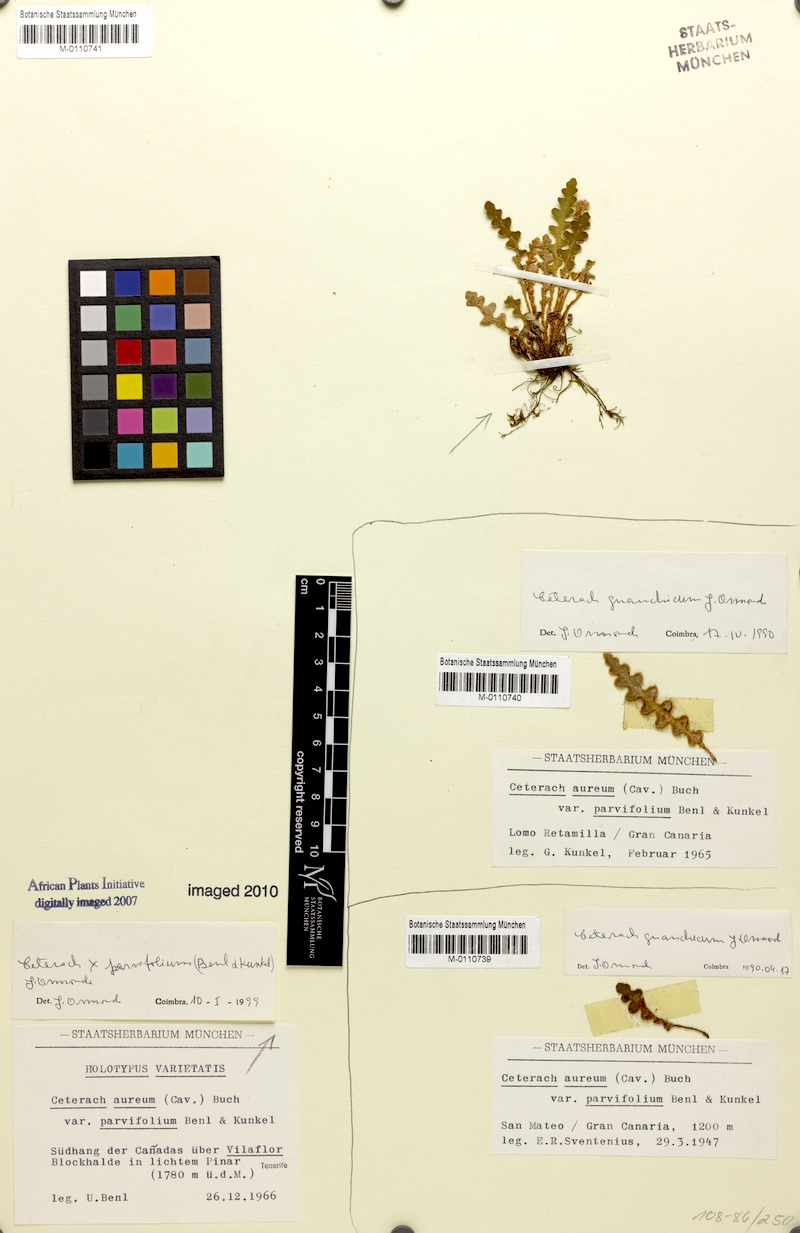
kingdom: Plantae
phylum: Tracheophyta
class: Polypodiopsida
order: Polypodiales
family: Aspleniaceae
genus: Asplenium
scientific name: Asplenium aureum
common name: Golden rustyback fern
